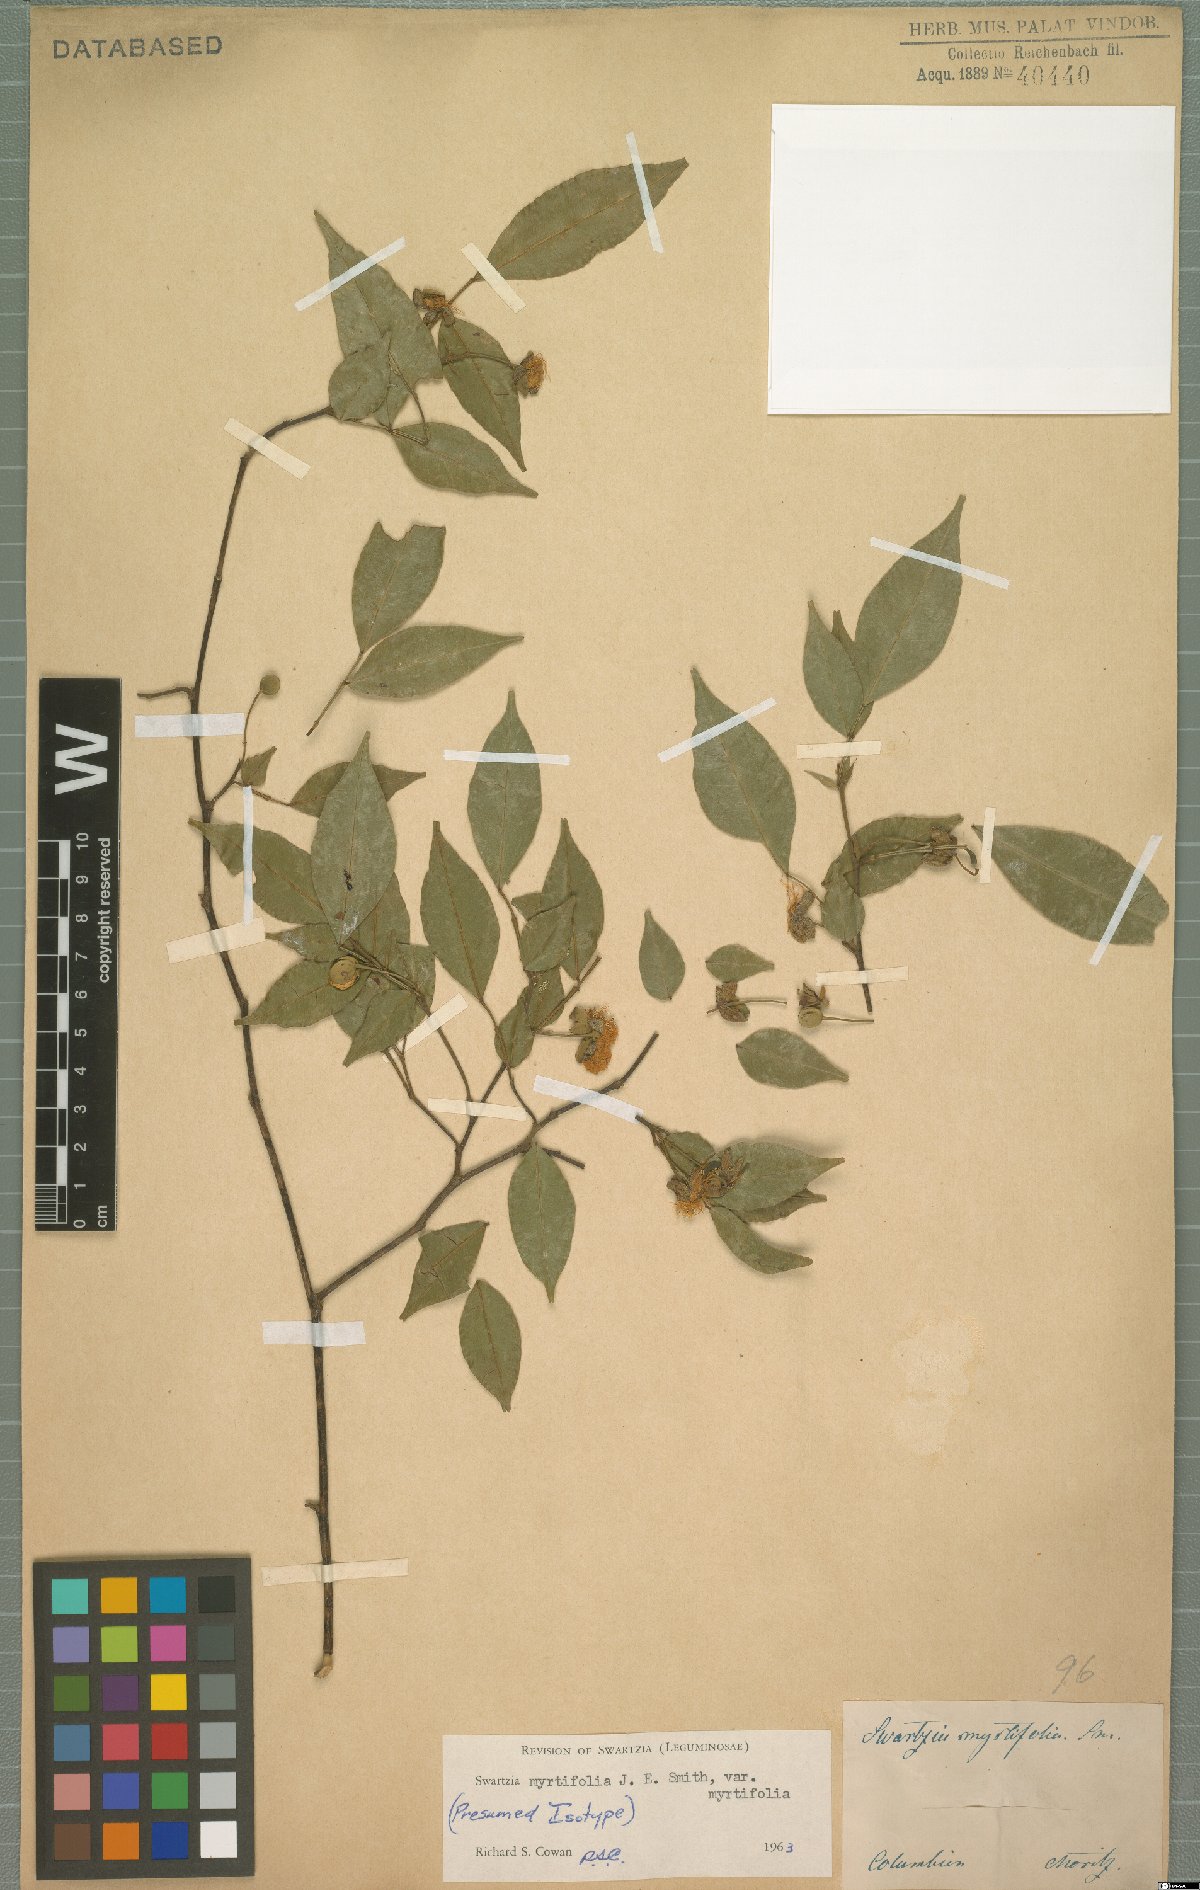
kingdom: Plantae
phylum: Tracheophyta
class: Magnoliopsida
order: Fabales
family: Fabaceae
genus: Swartzia
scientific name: Swartzia myrtifolia
